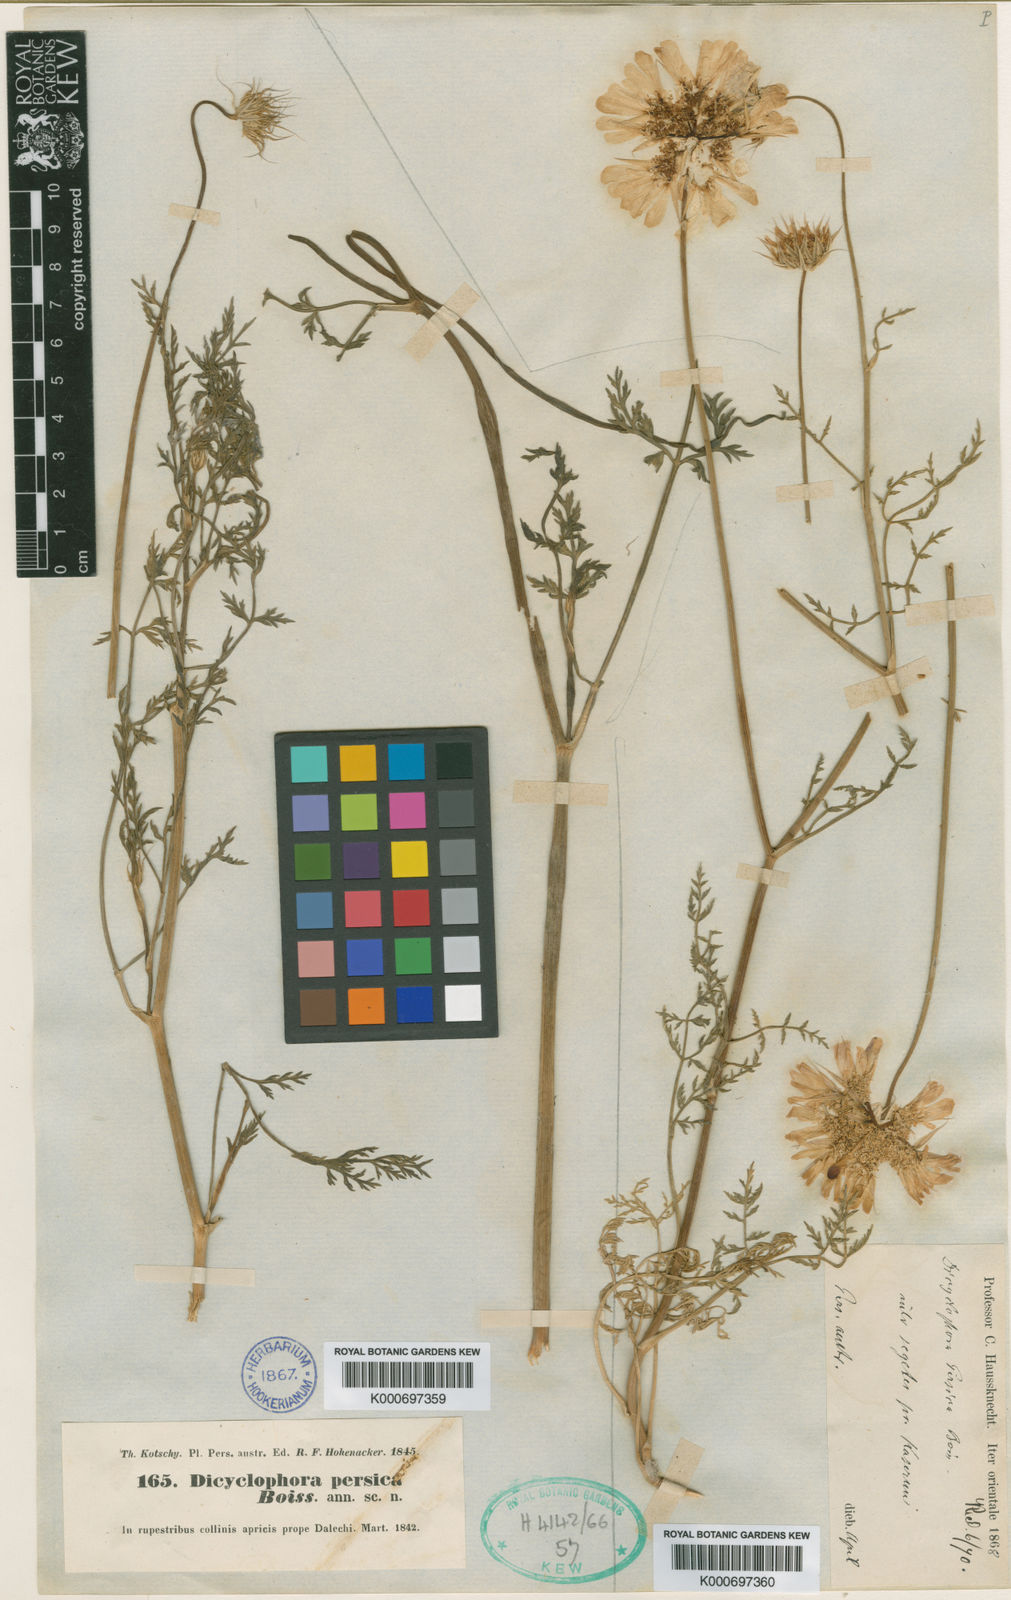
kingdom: Plantae
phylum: Tracheophyta
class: Magnoliopsida
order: Apiales
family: Apiaceae
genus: Dicyclophora
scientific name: Dicyclophora persica
